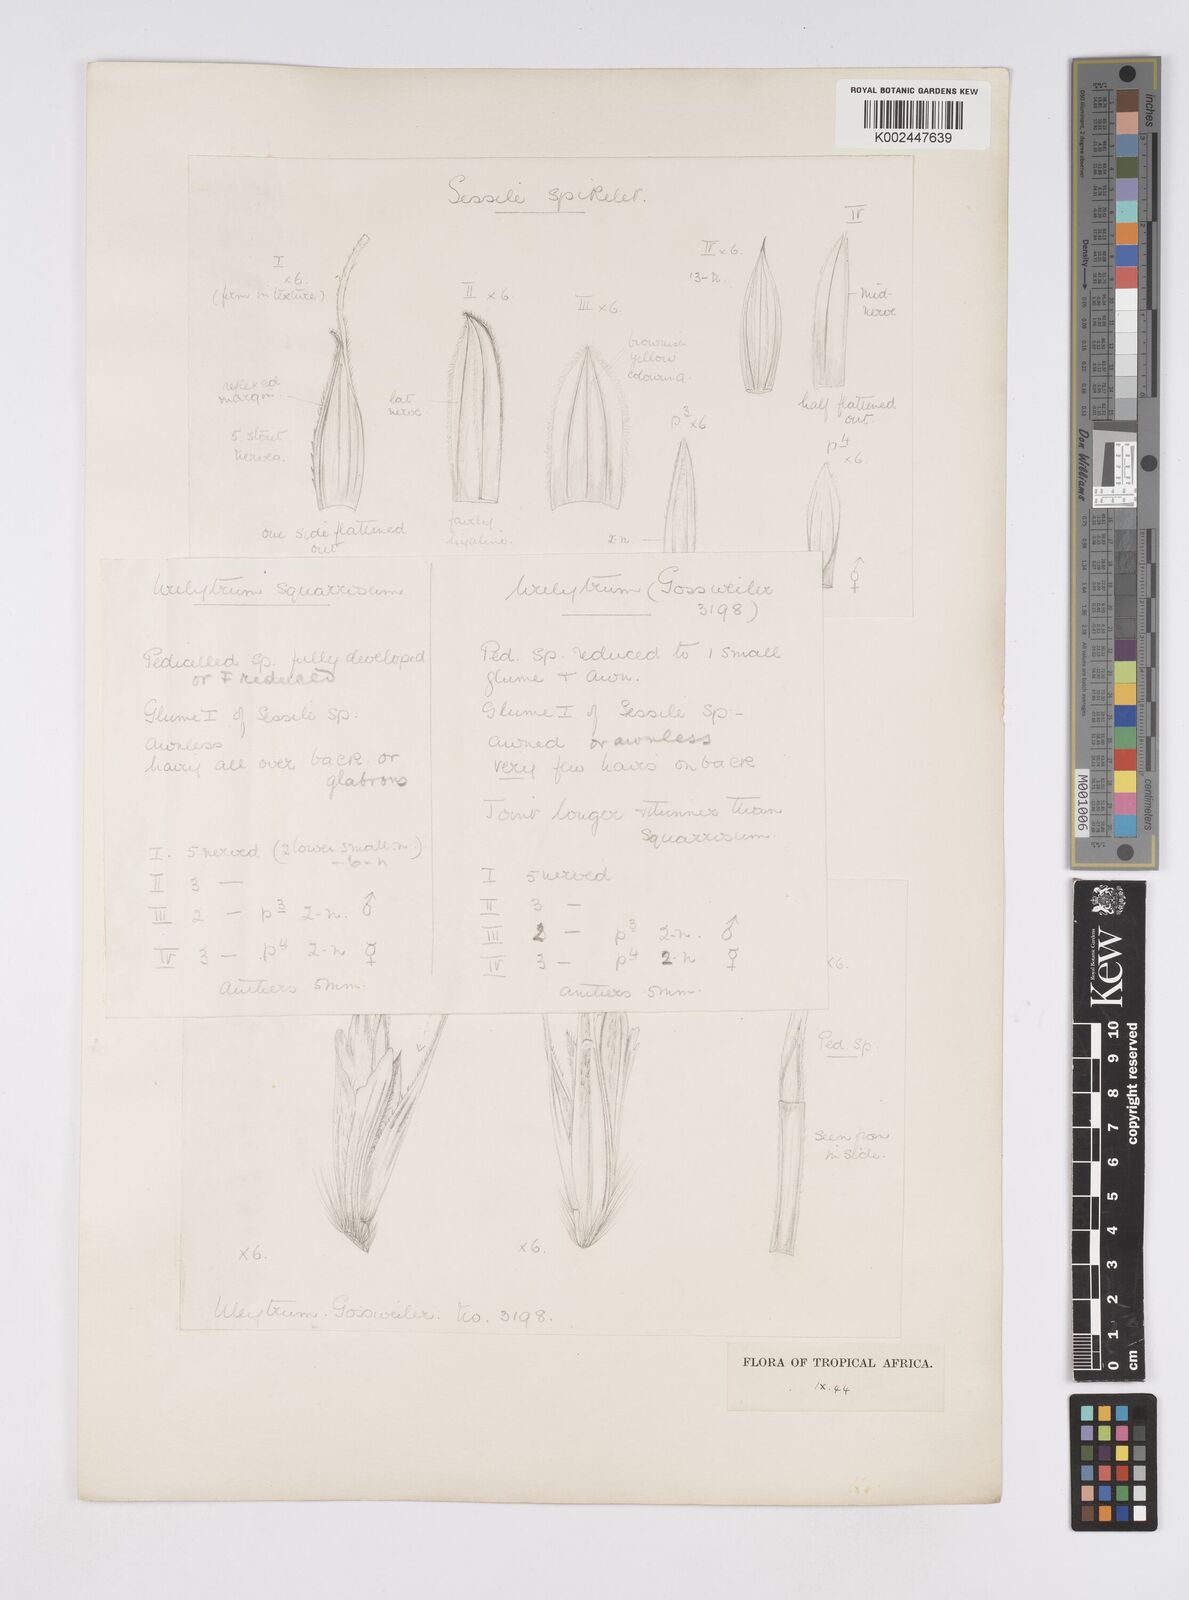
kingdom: Plantae
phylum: Tracheophyta
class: Liliopsida
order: Poales
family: Poaceae
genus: Urelytrum
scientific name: Urelytrum agropyroides
